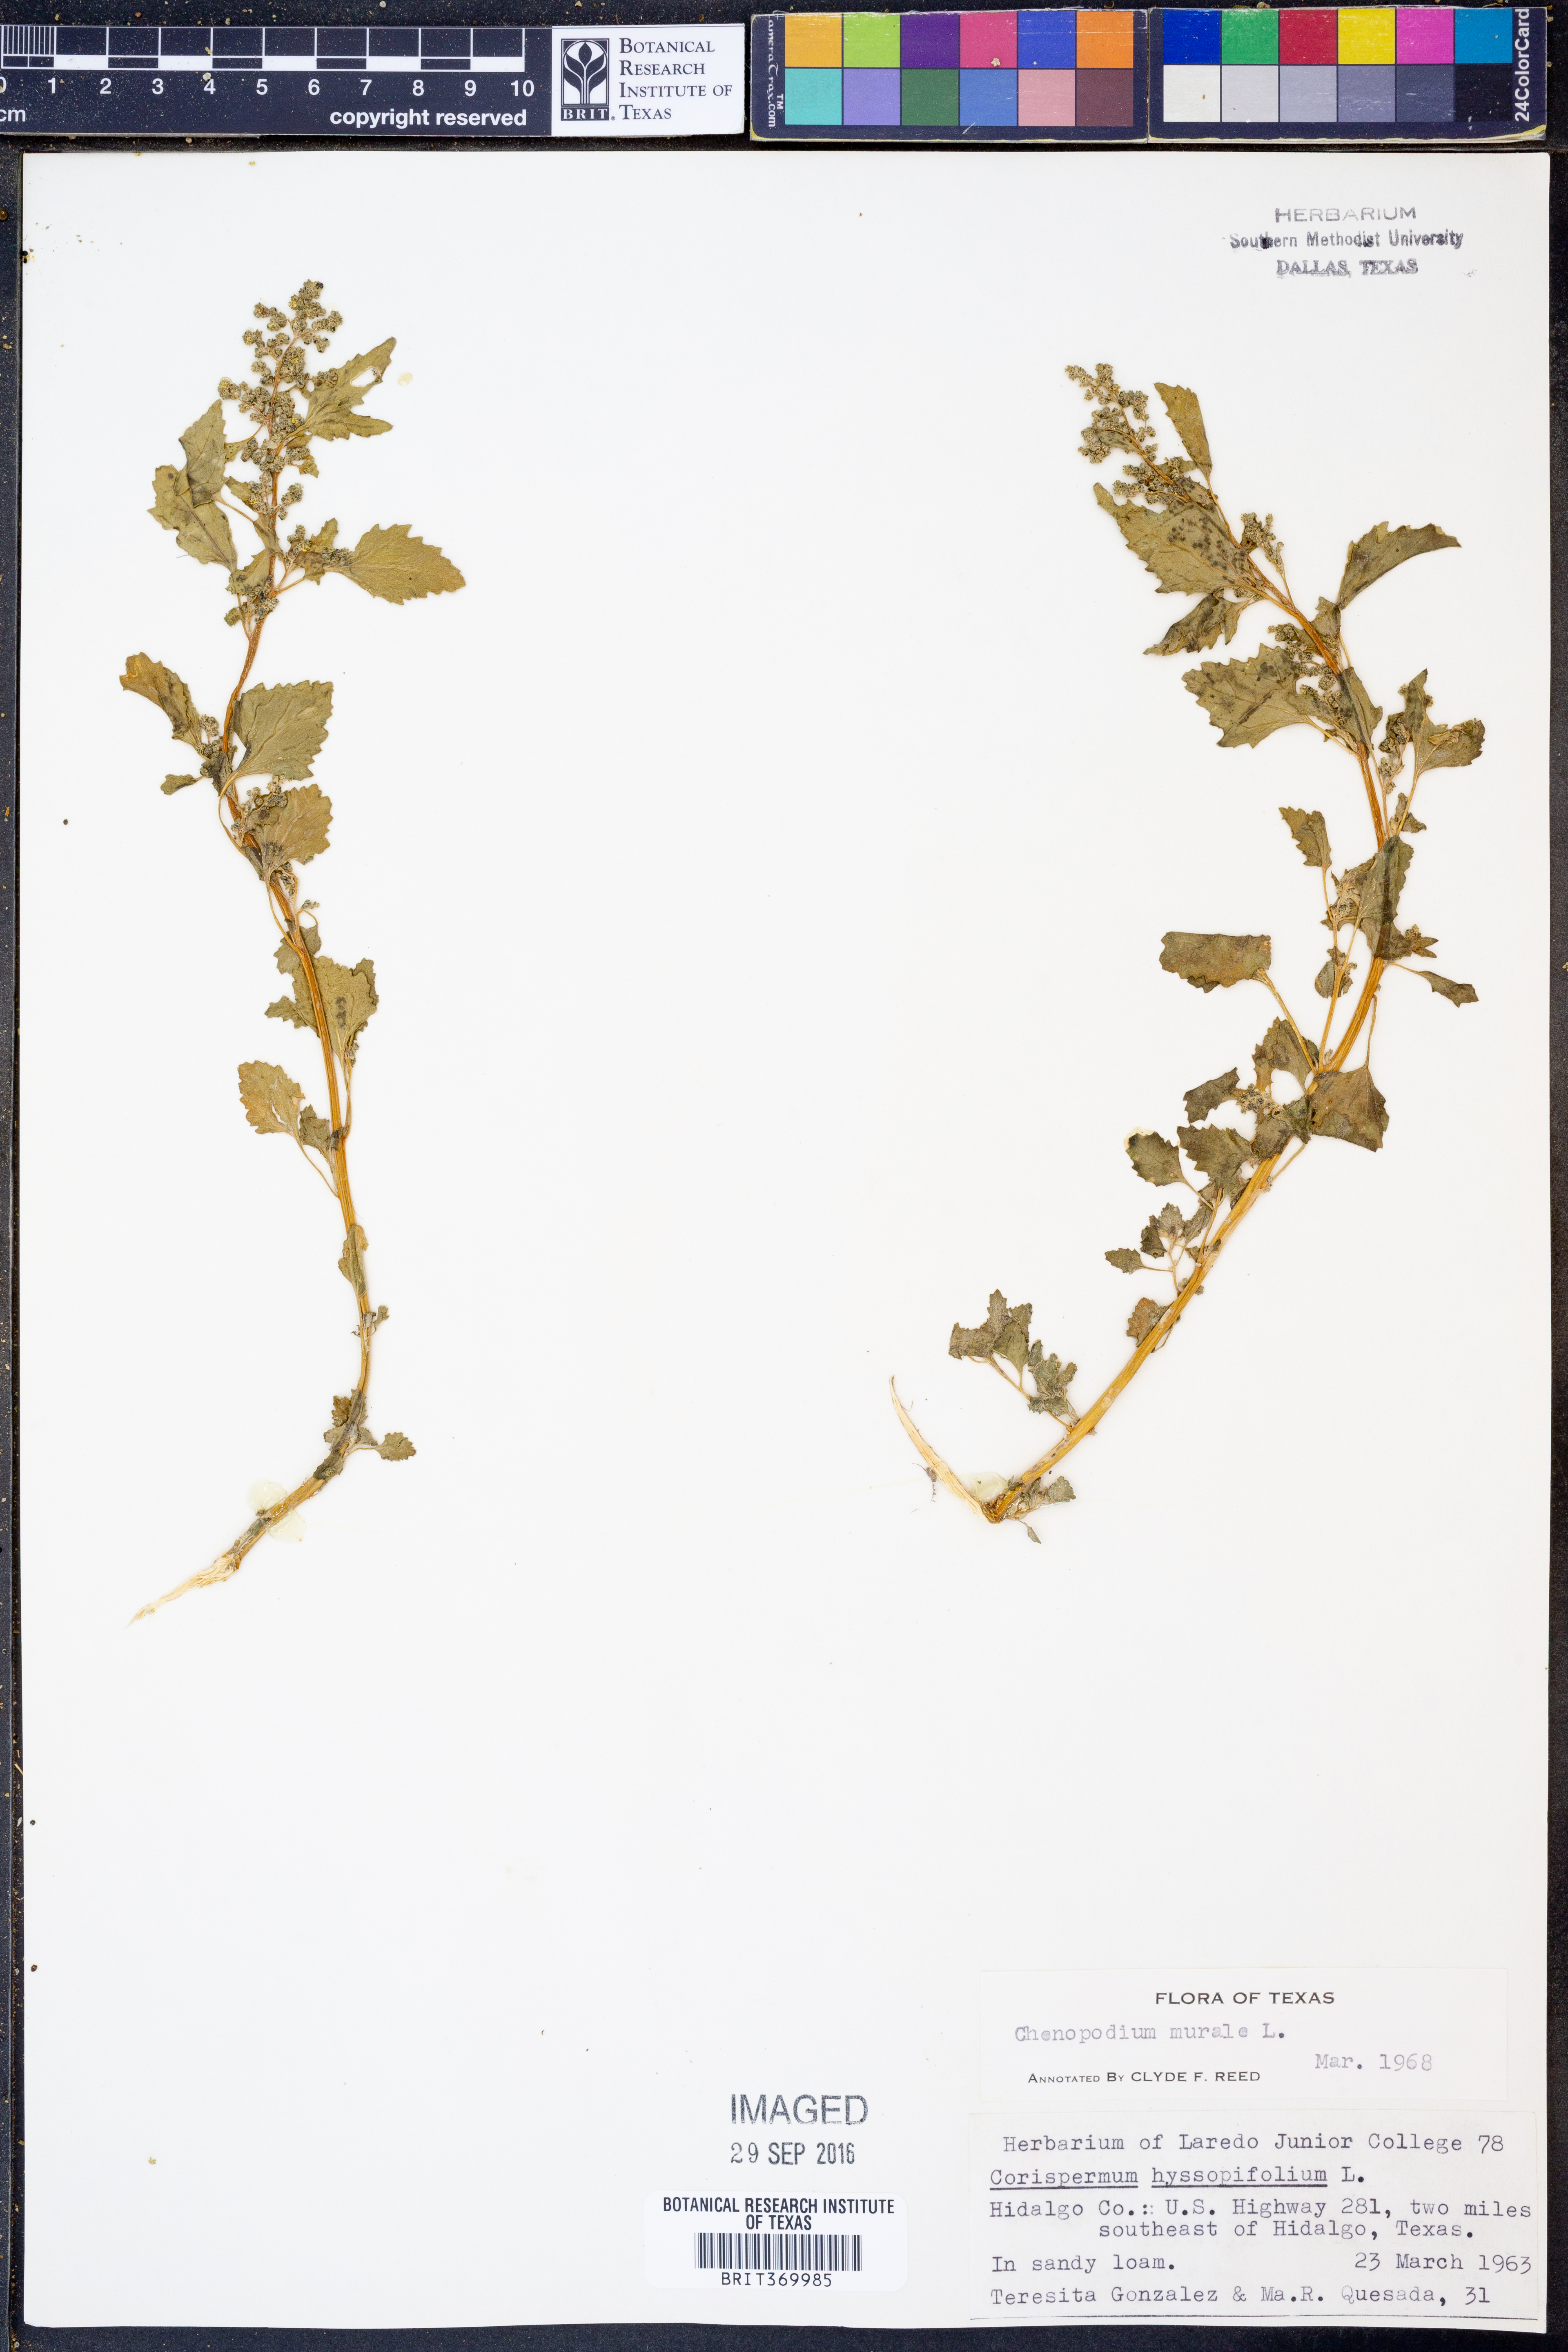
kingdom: Plantae
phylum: Tracheophyta
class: Magnoliopsida
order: Caryophyllales
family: Amaranthaceae
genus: Chenopodiastrum
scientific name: Chenopodiastrum murale
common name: Sowbane
